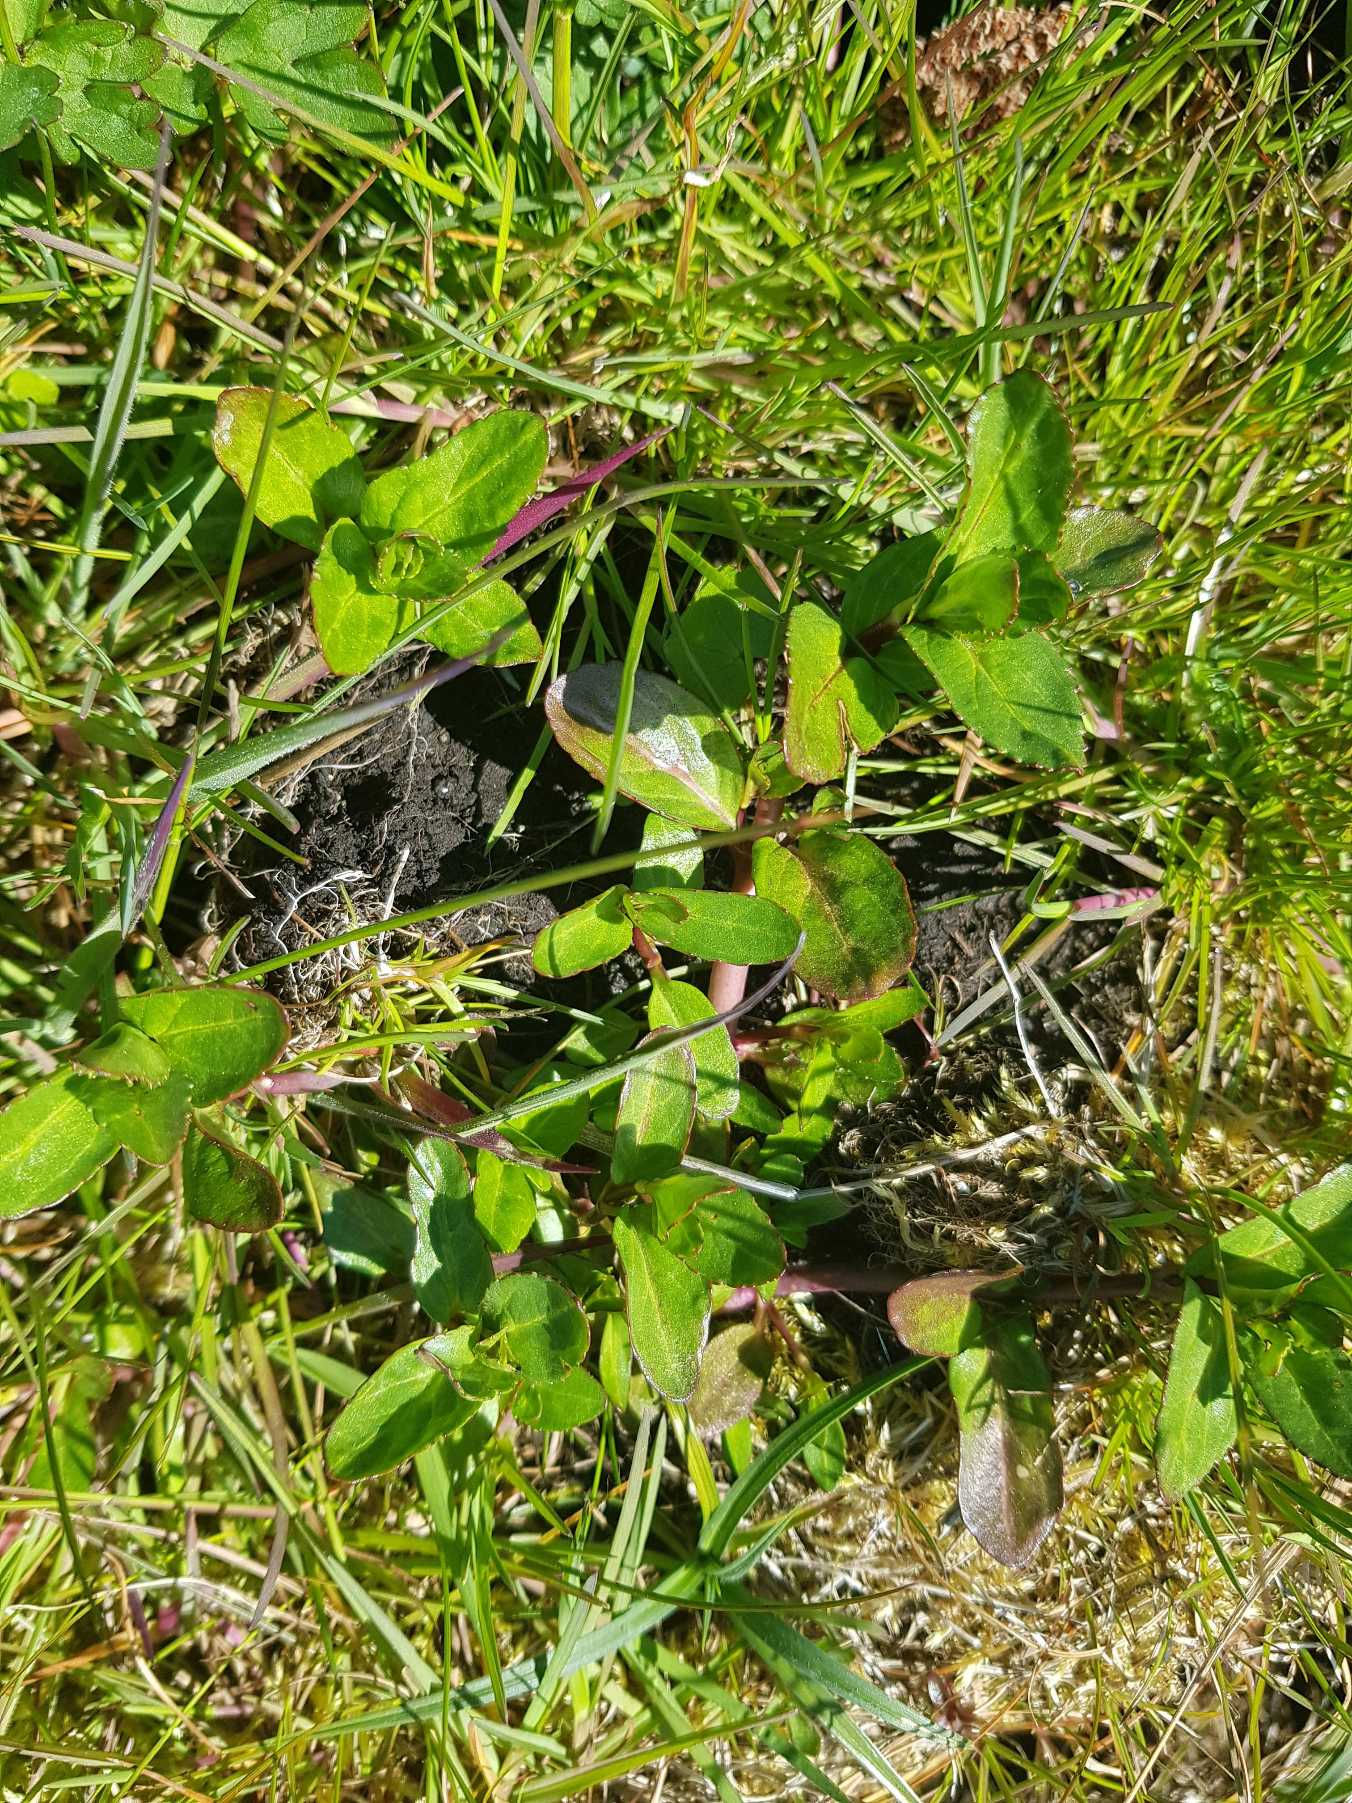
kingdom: Plantae
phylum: Tracheophyta
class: Magnoliopsida
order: Lamiales
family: Plantaginaceae
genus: Veronica
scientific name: Veronica beccabunga
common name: Tykbladet ærenpris
